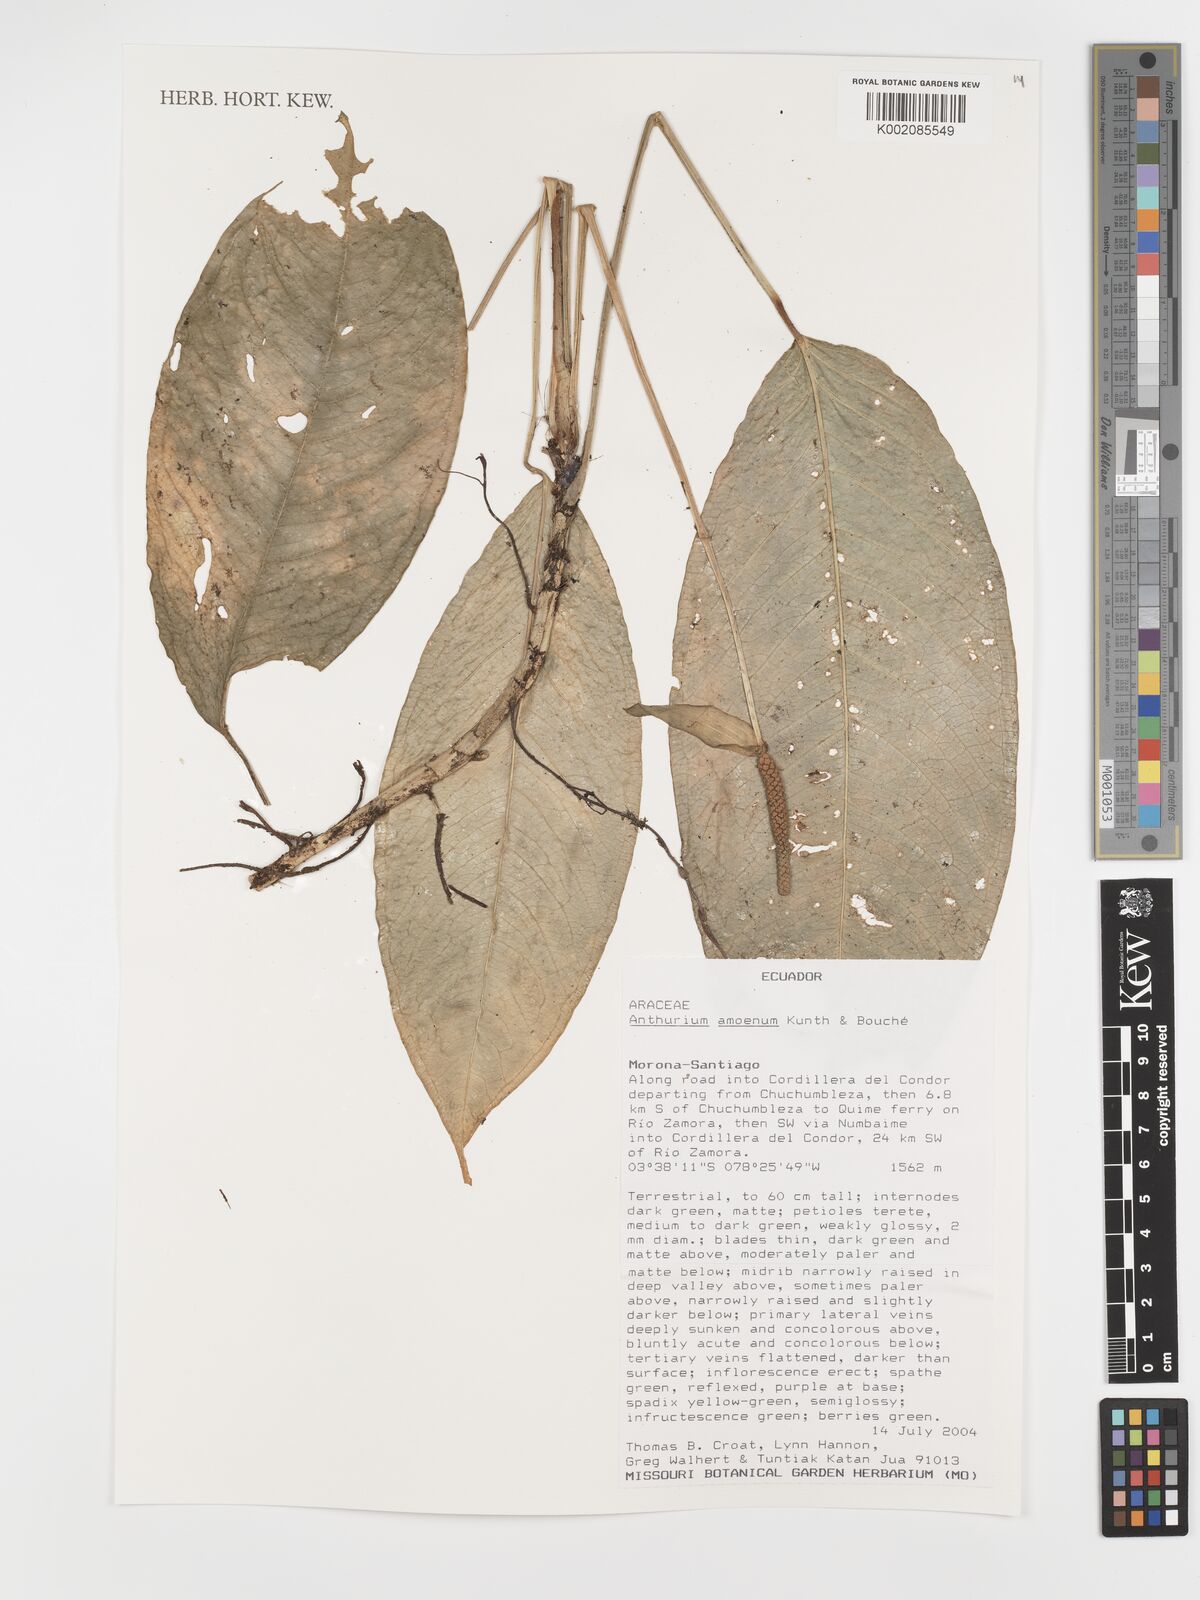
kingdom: Plantae
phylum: Tracheophyta
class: Liliopsida
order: Alismatales
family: Araceae
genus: Anthurium
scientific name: Anthurium amoenum
